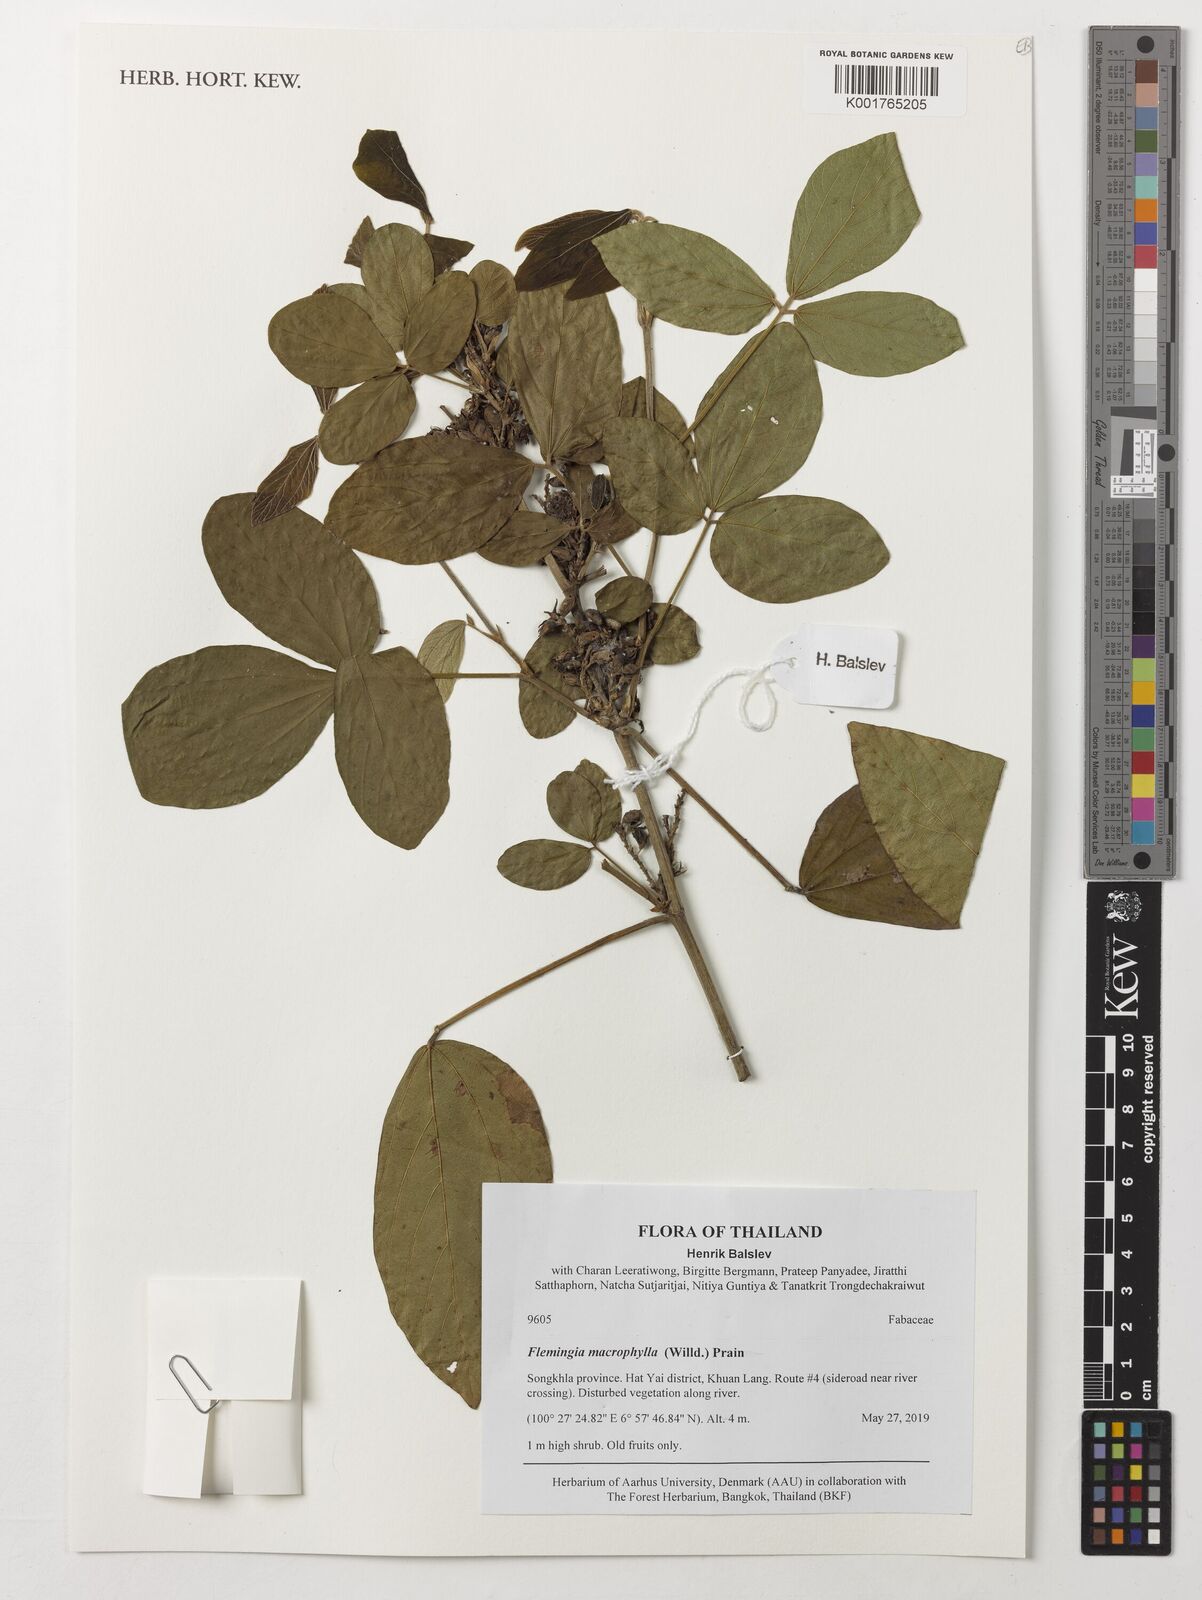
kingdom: Plantae
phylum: Tracheophyta
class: Magnoliopsida
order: Fabales
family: Fabaceae
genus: Flemingia
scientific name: Flemingia macrophylla
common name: Flemingia
